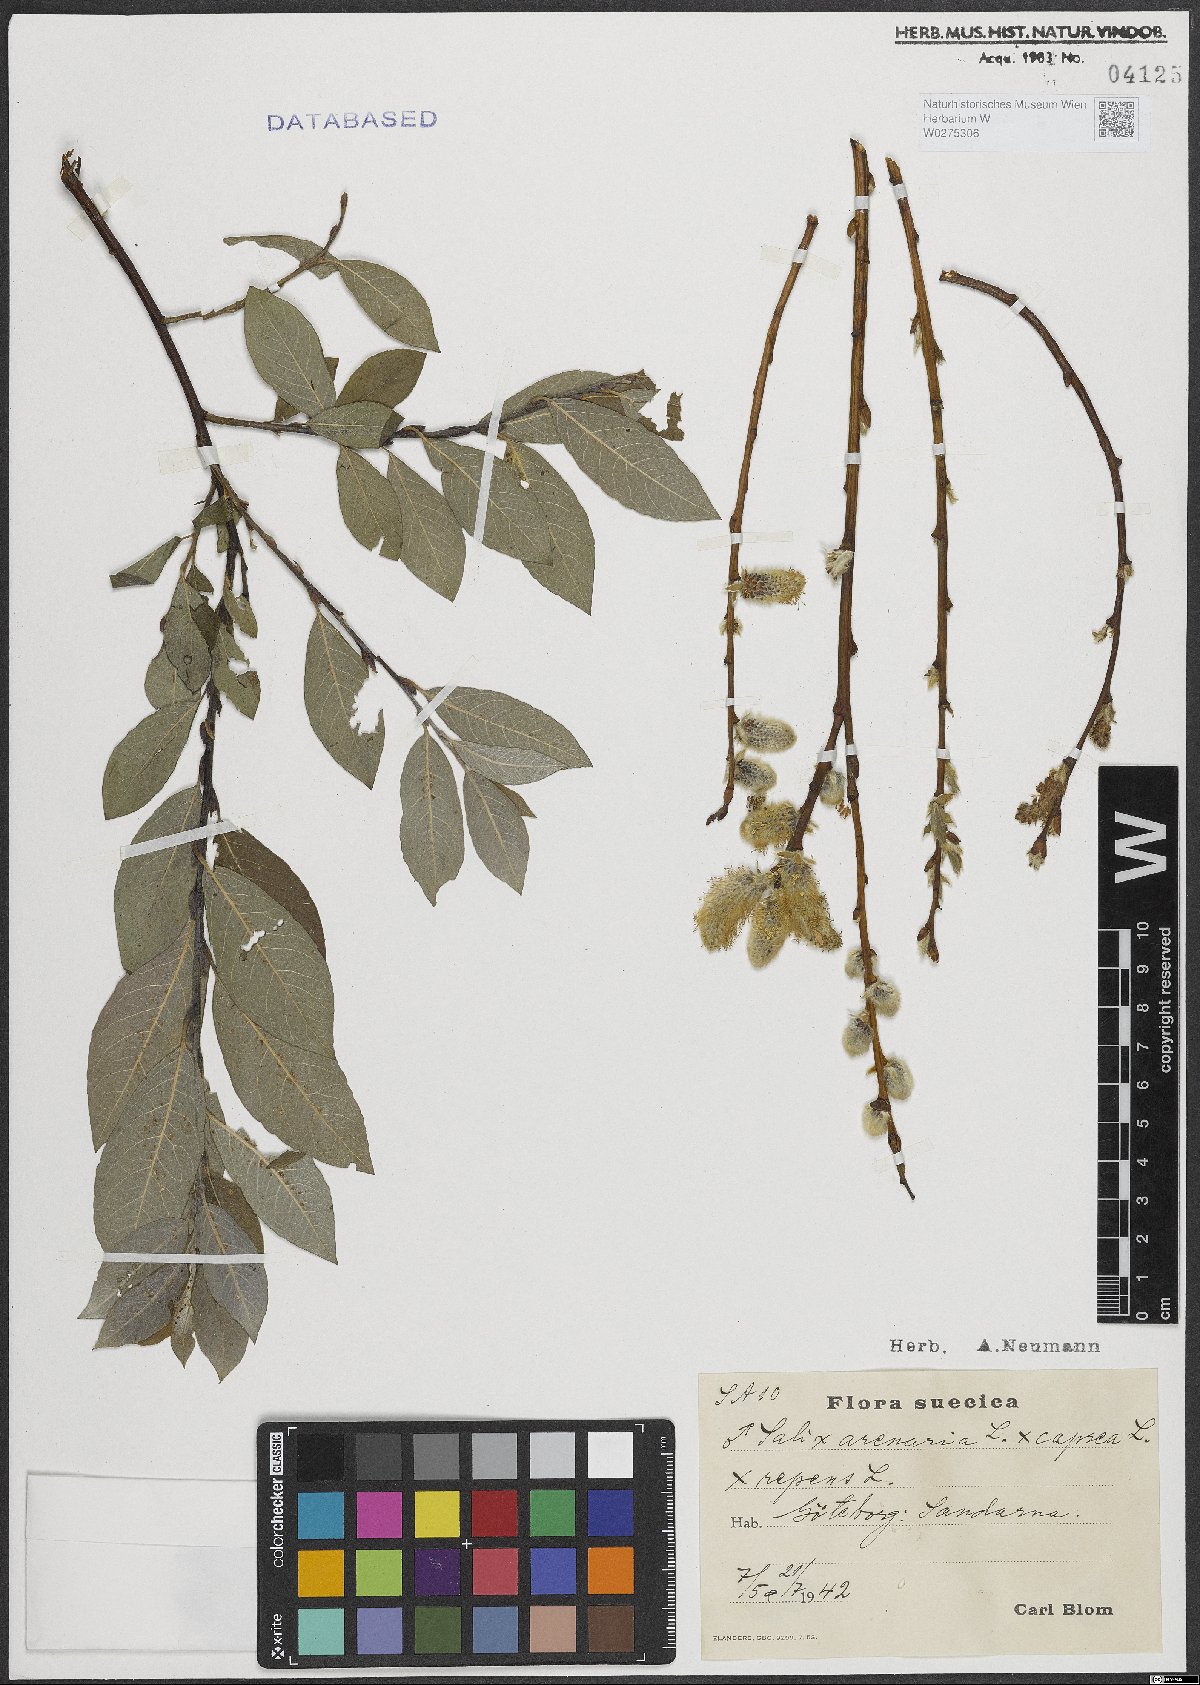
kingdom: Plantae
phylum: Tracheophyta
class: Magnoliopsida
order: Malpighiales
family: Salicaceae
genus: Salix
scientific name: Salix repens
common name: Creeping willow
